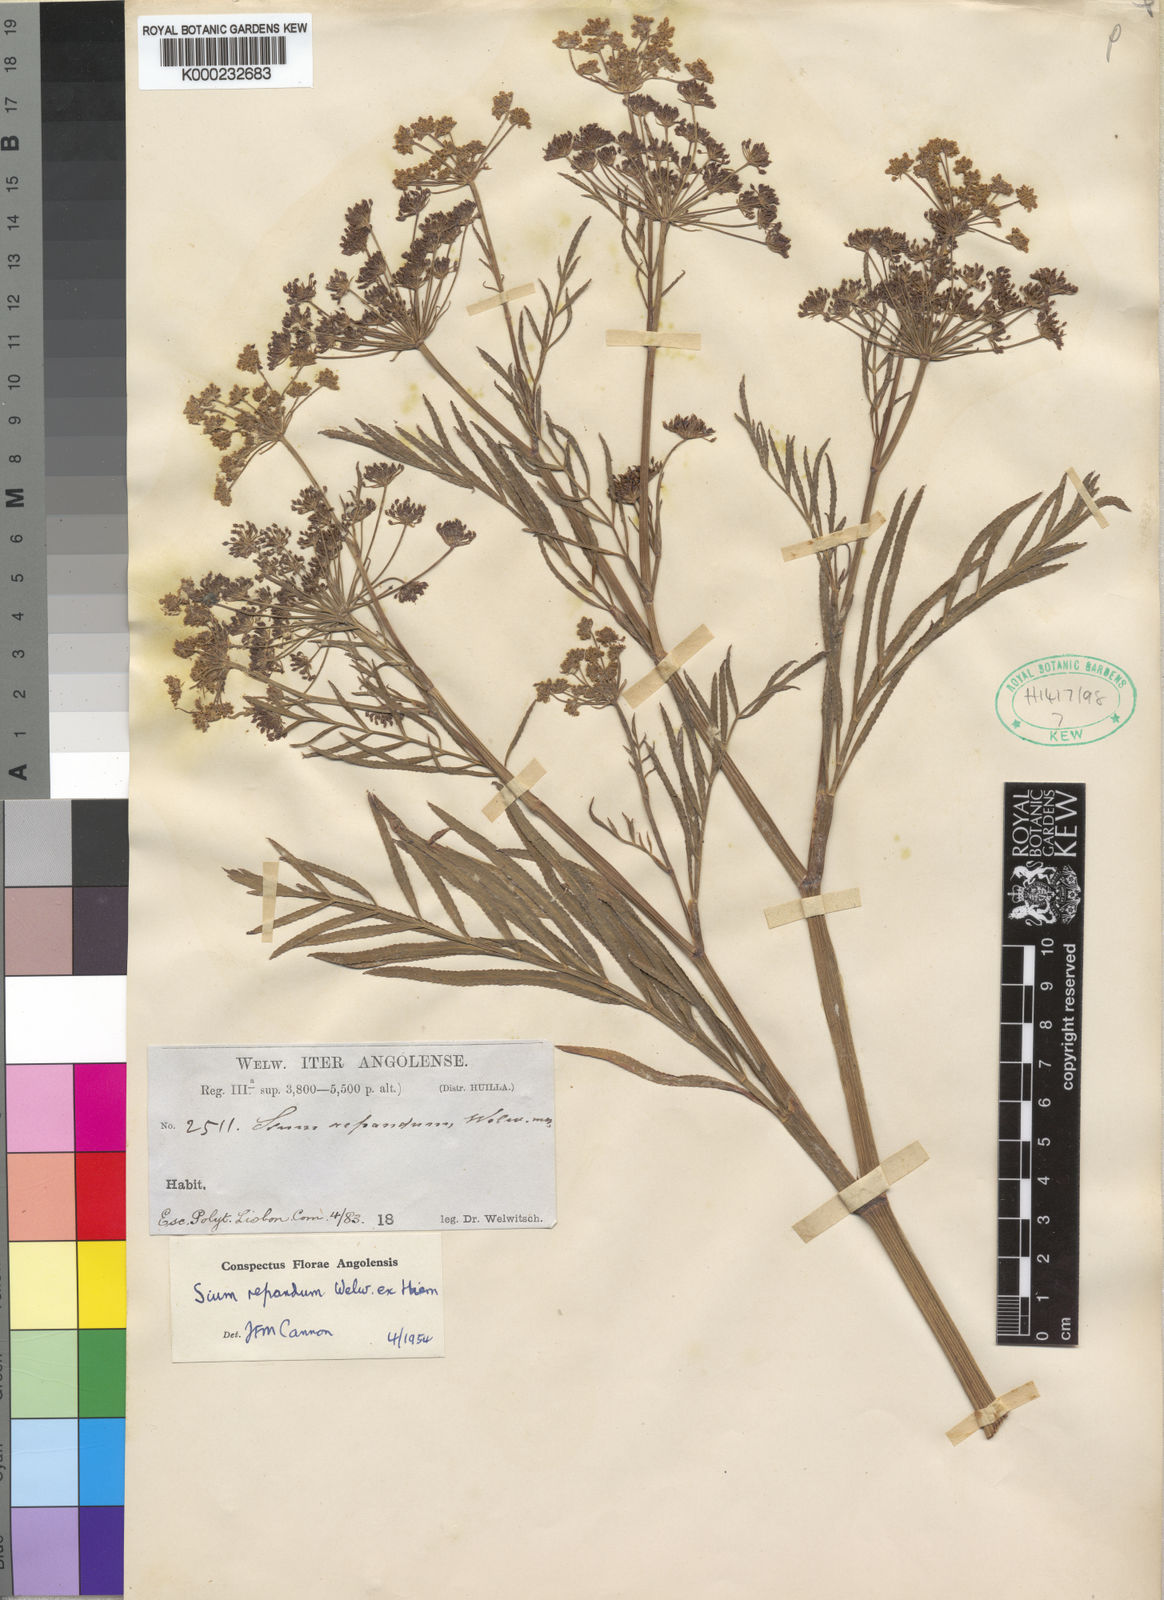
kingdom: Plantae
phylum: Tracheophyta
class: Magnoliopsida
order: Apiales
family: Apiaceae
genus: Berula
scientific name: Berula repanda
